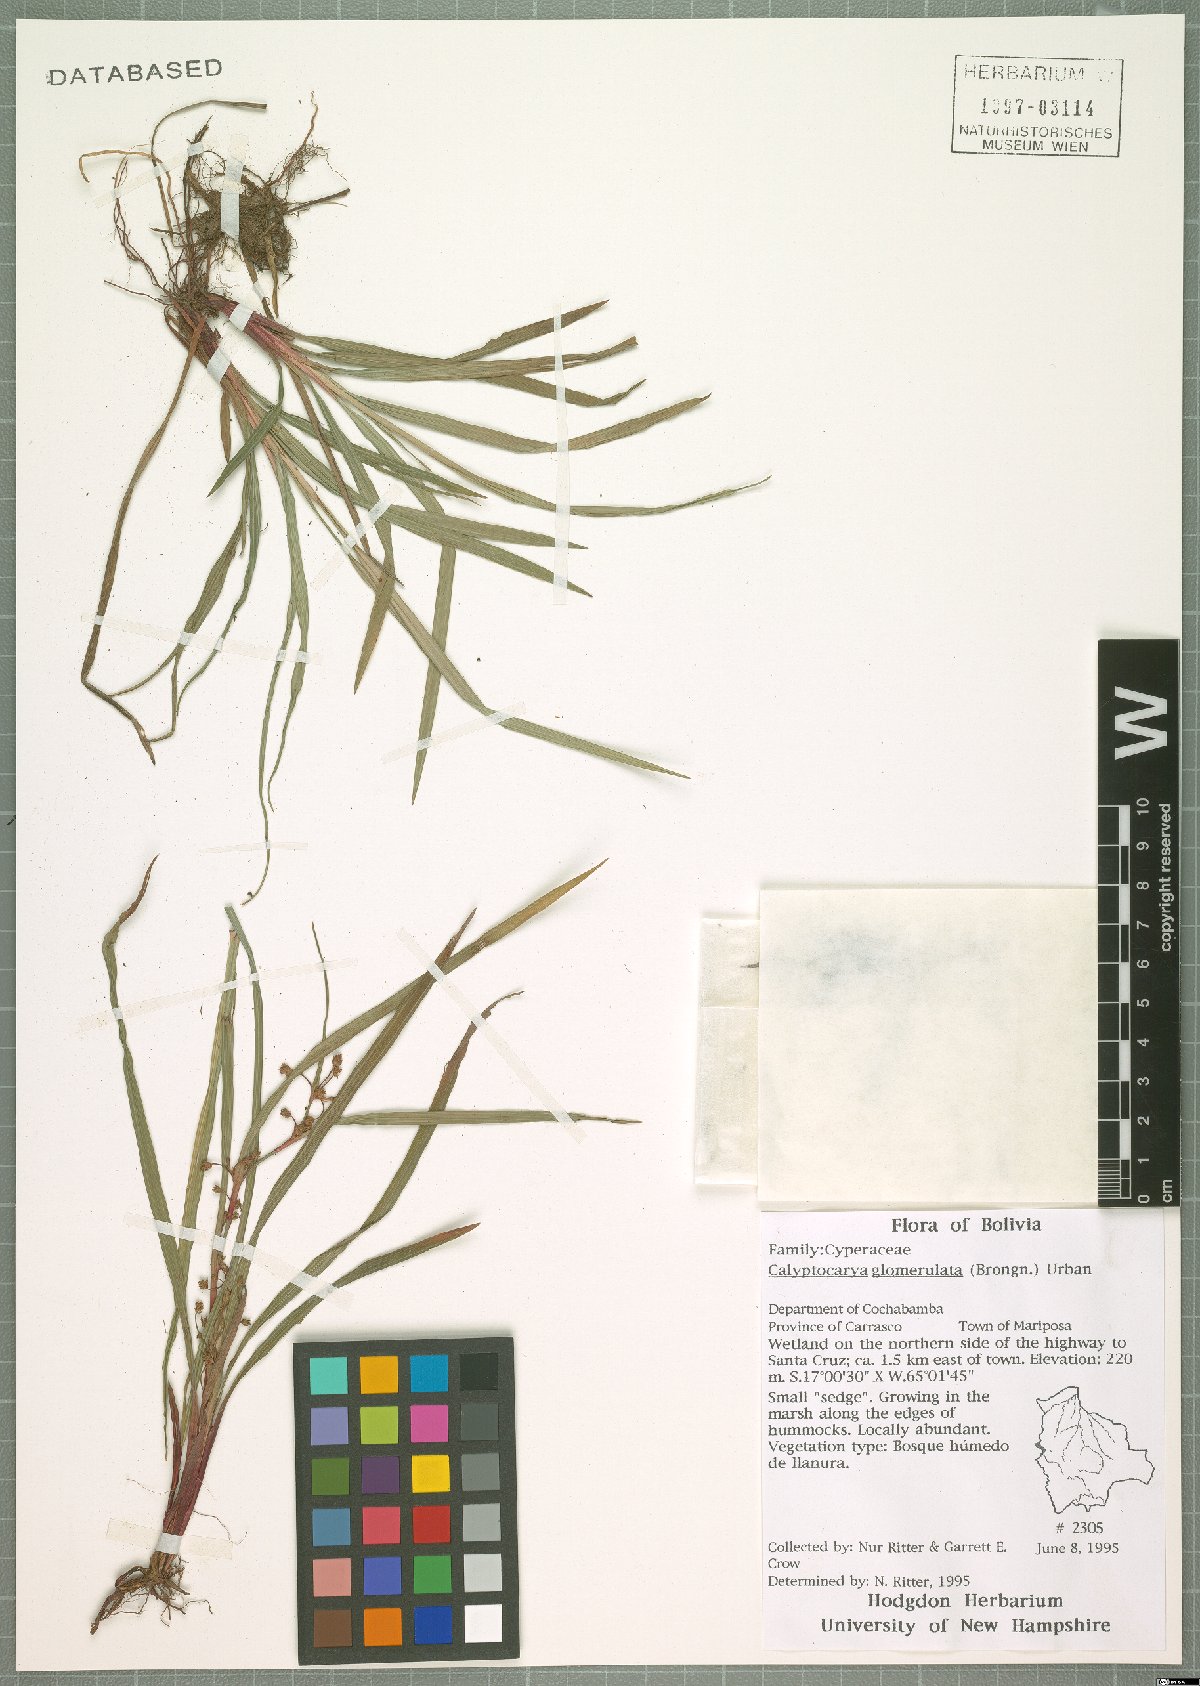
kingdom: Plantae
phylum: Tracheophyta
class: Liliopsida
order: Poales
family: Cyperaceae
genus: Calyptrocarya
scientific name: Calyptrocarya glomerulata
